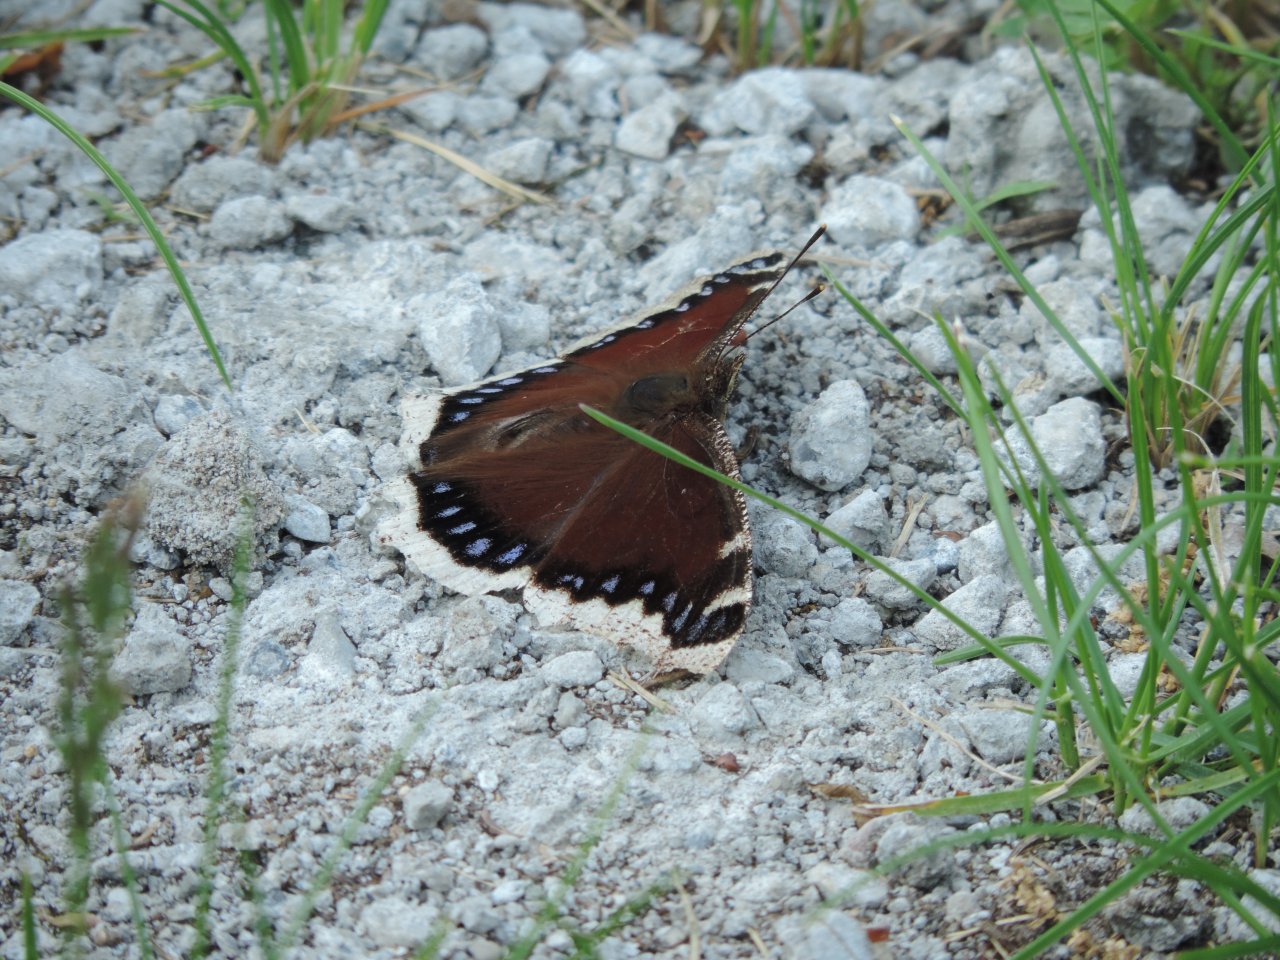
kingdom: Animalia
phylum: Arthropoda
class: Insecta
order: Lepidoptera
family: Nymphalidae
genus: Nymphalis
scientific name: Nymphalis antiopa
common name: Mourning Cloak
